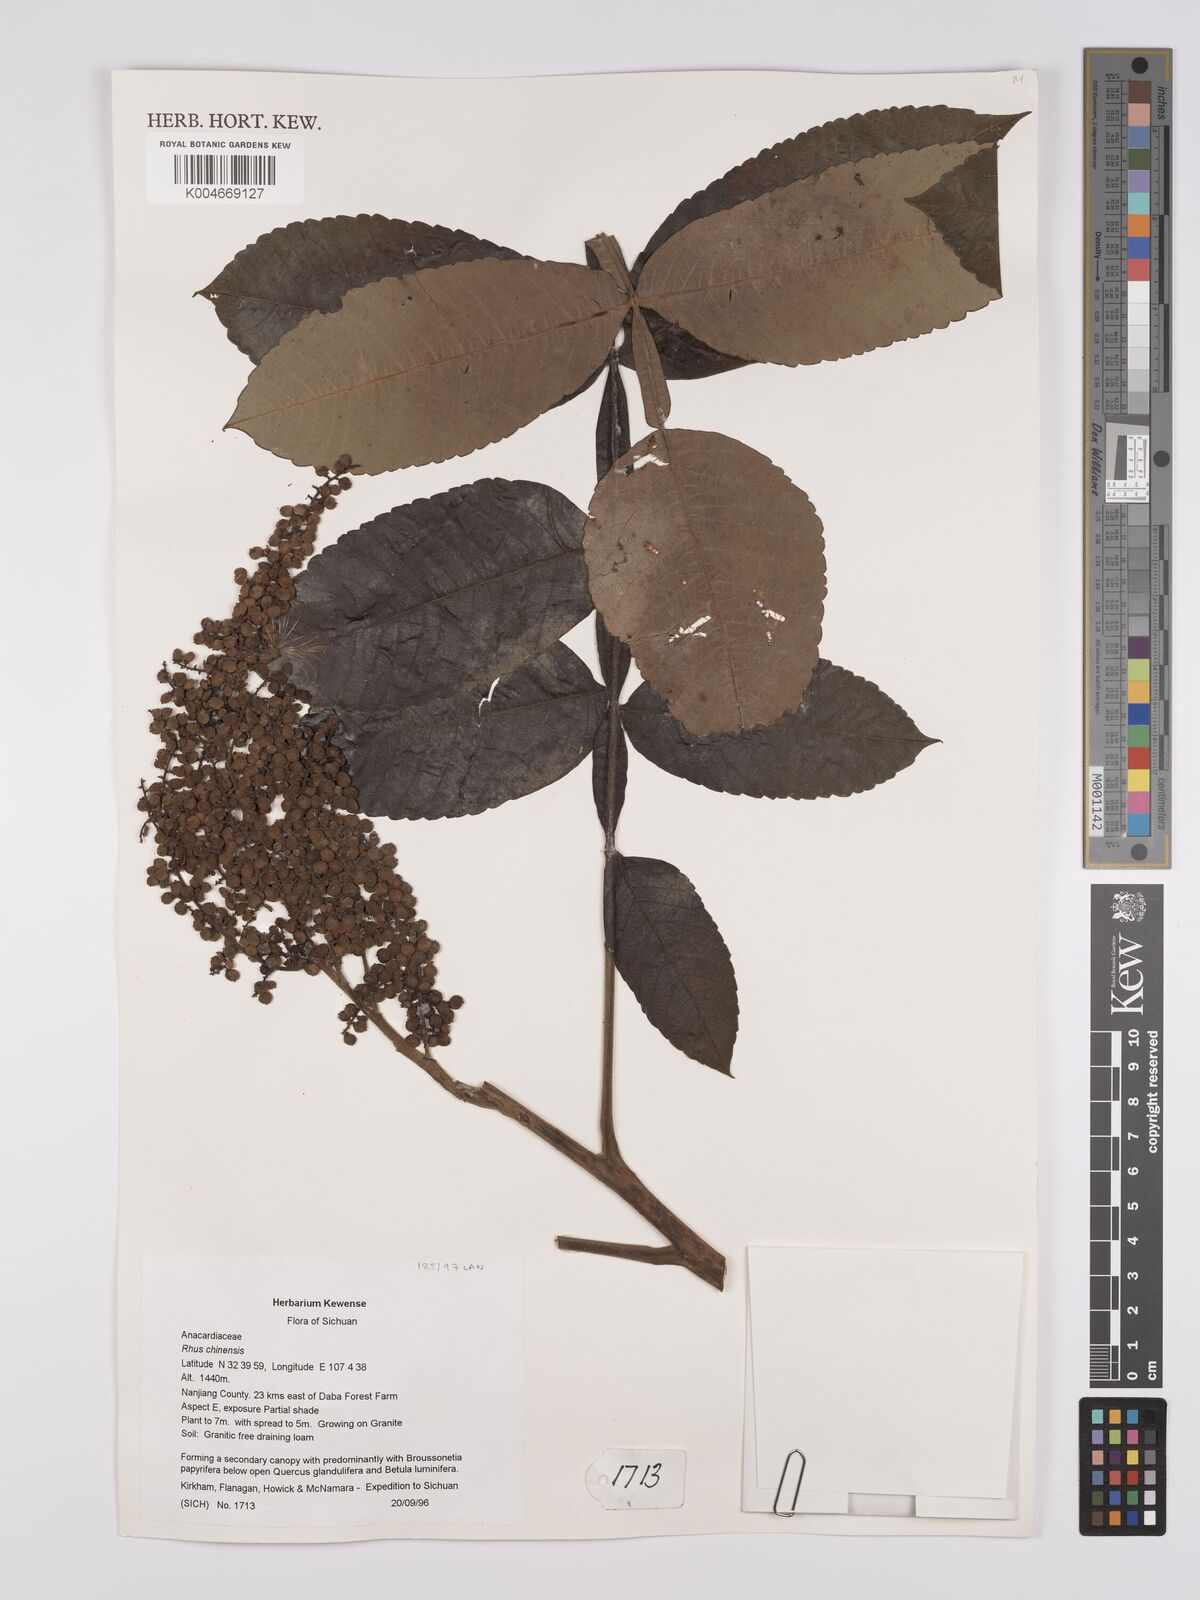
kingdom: Plantae
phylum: Tracheophyta
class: Magnoliopsida
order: Sapindales
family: Anacardiaceae
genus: Rhus
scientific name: Rhus chinensis
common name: Chinese gall
